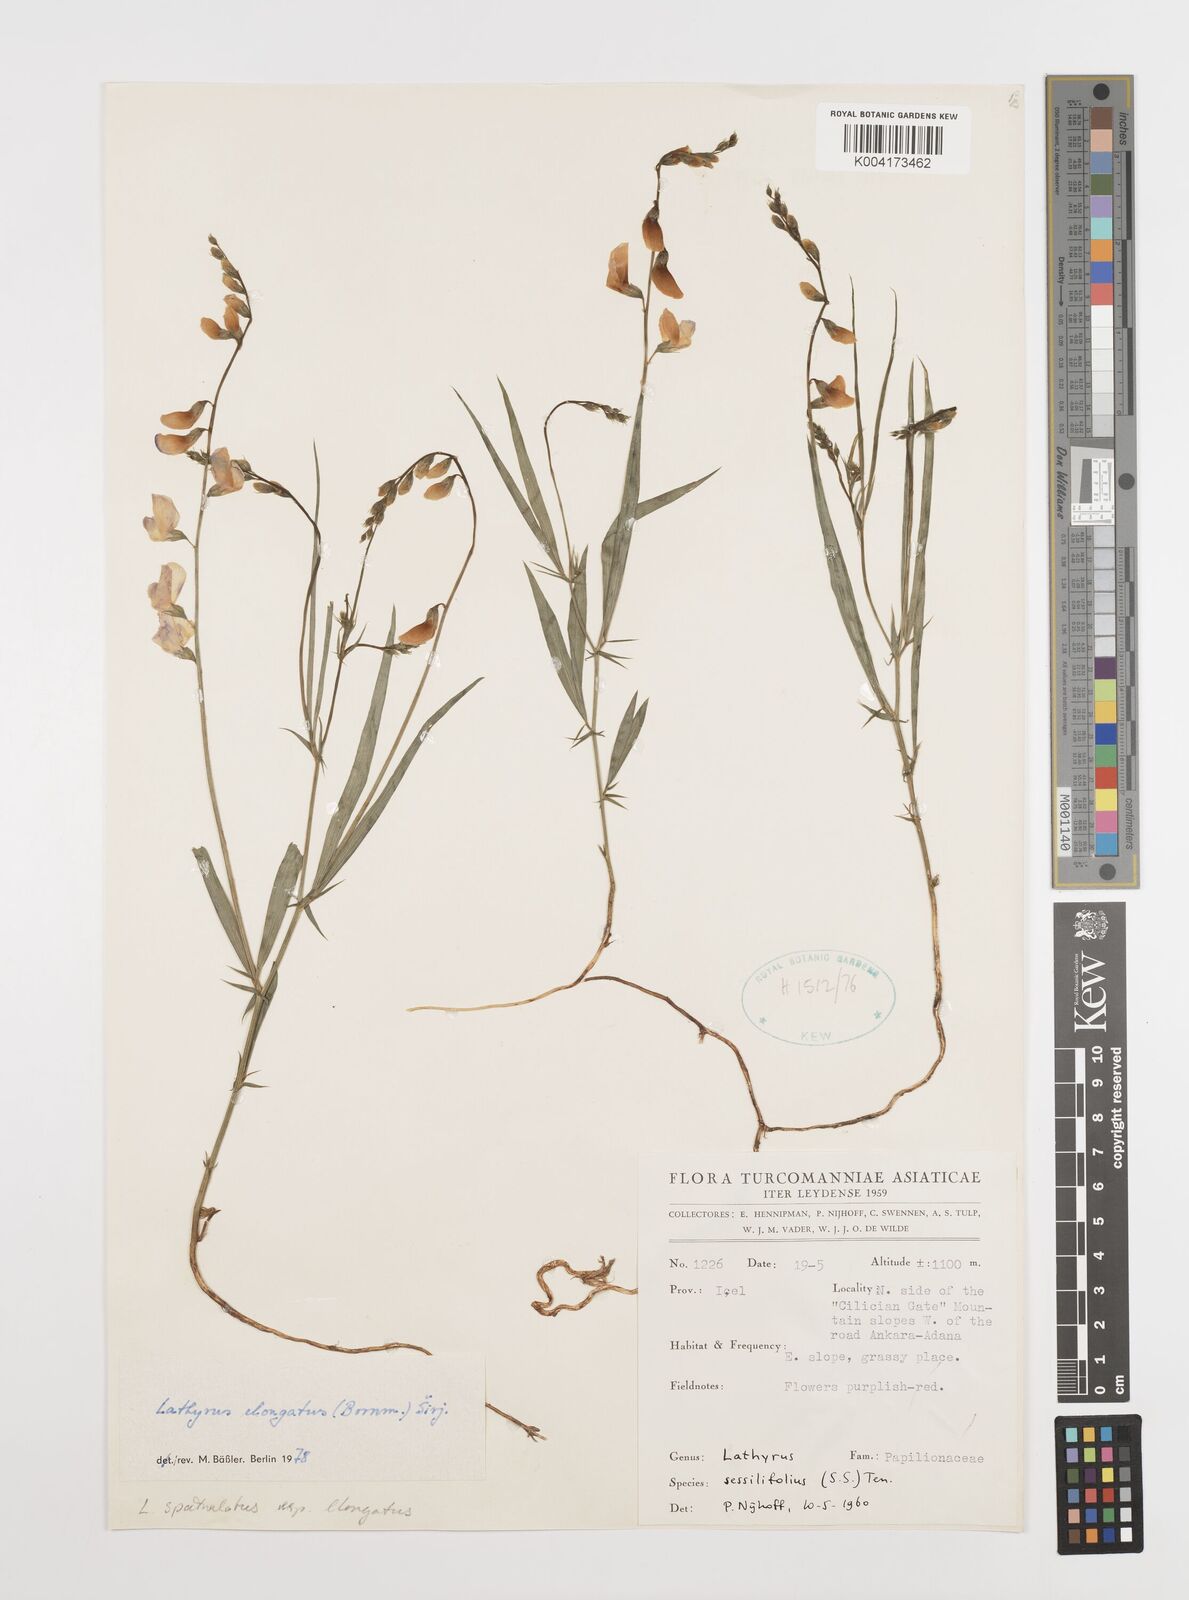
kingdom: Plantae
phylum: Tracheophyta
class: Magnoliopsida
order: Fabales
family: Fabaceae
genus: Lathyrus
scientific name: Lathyrus elongatus
